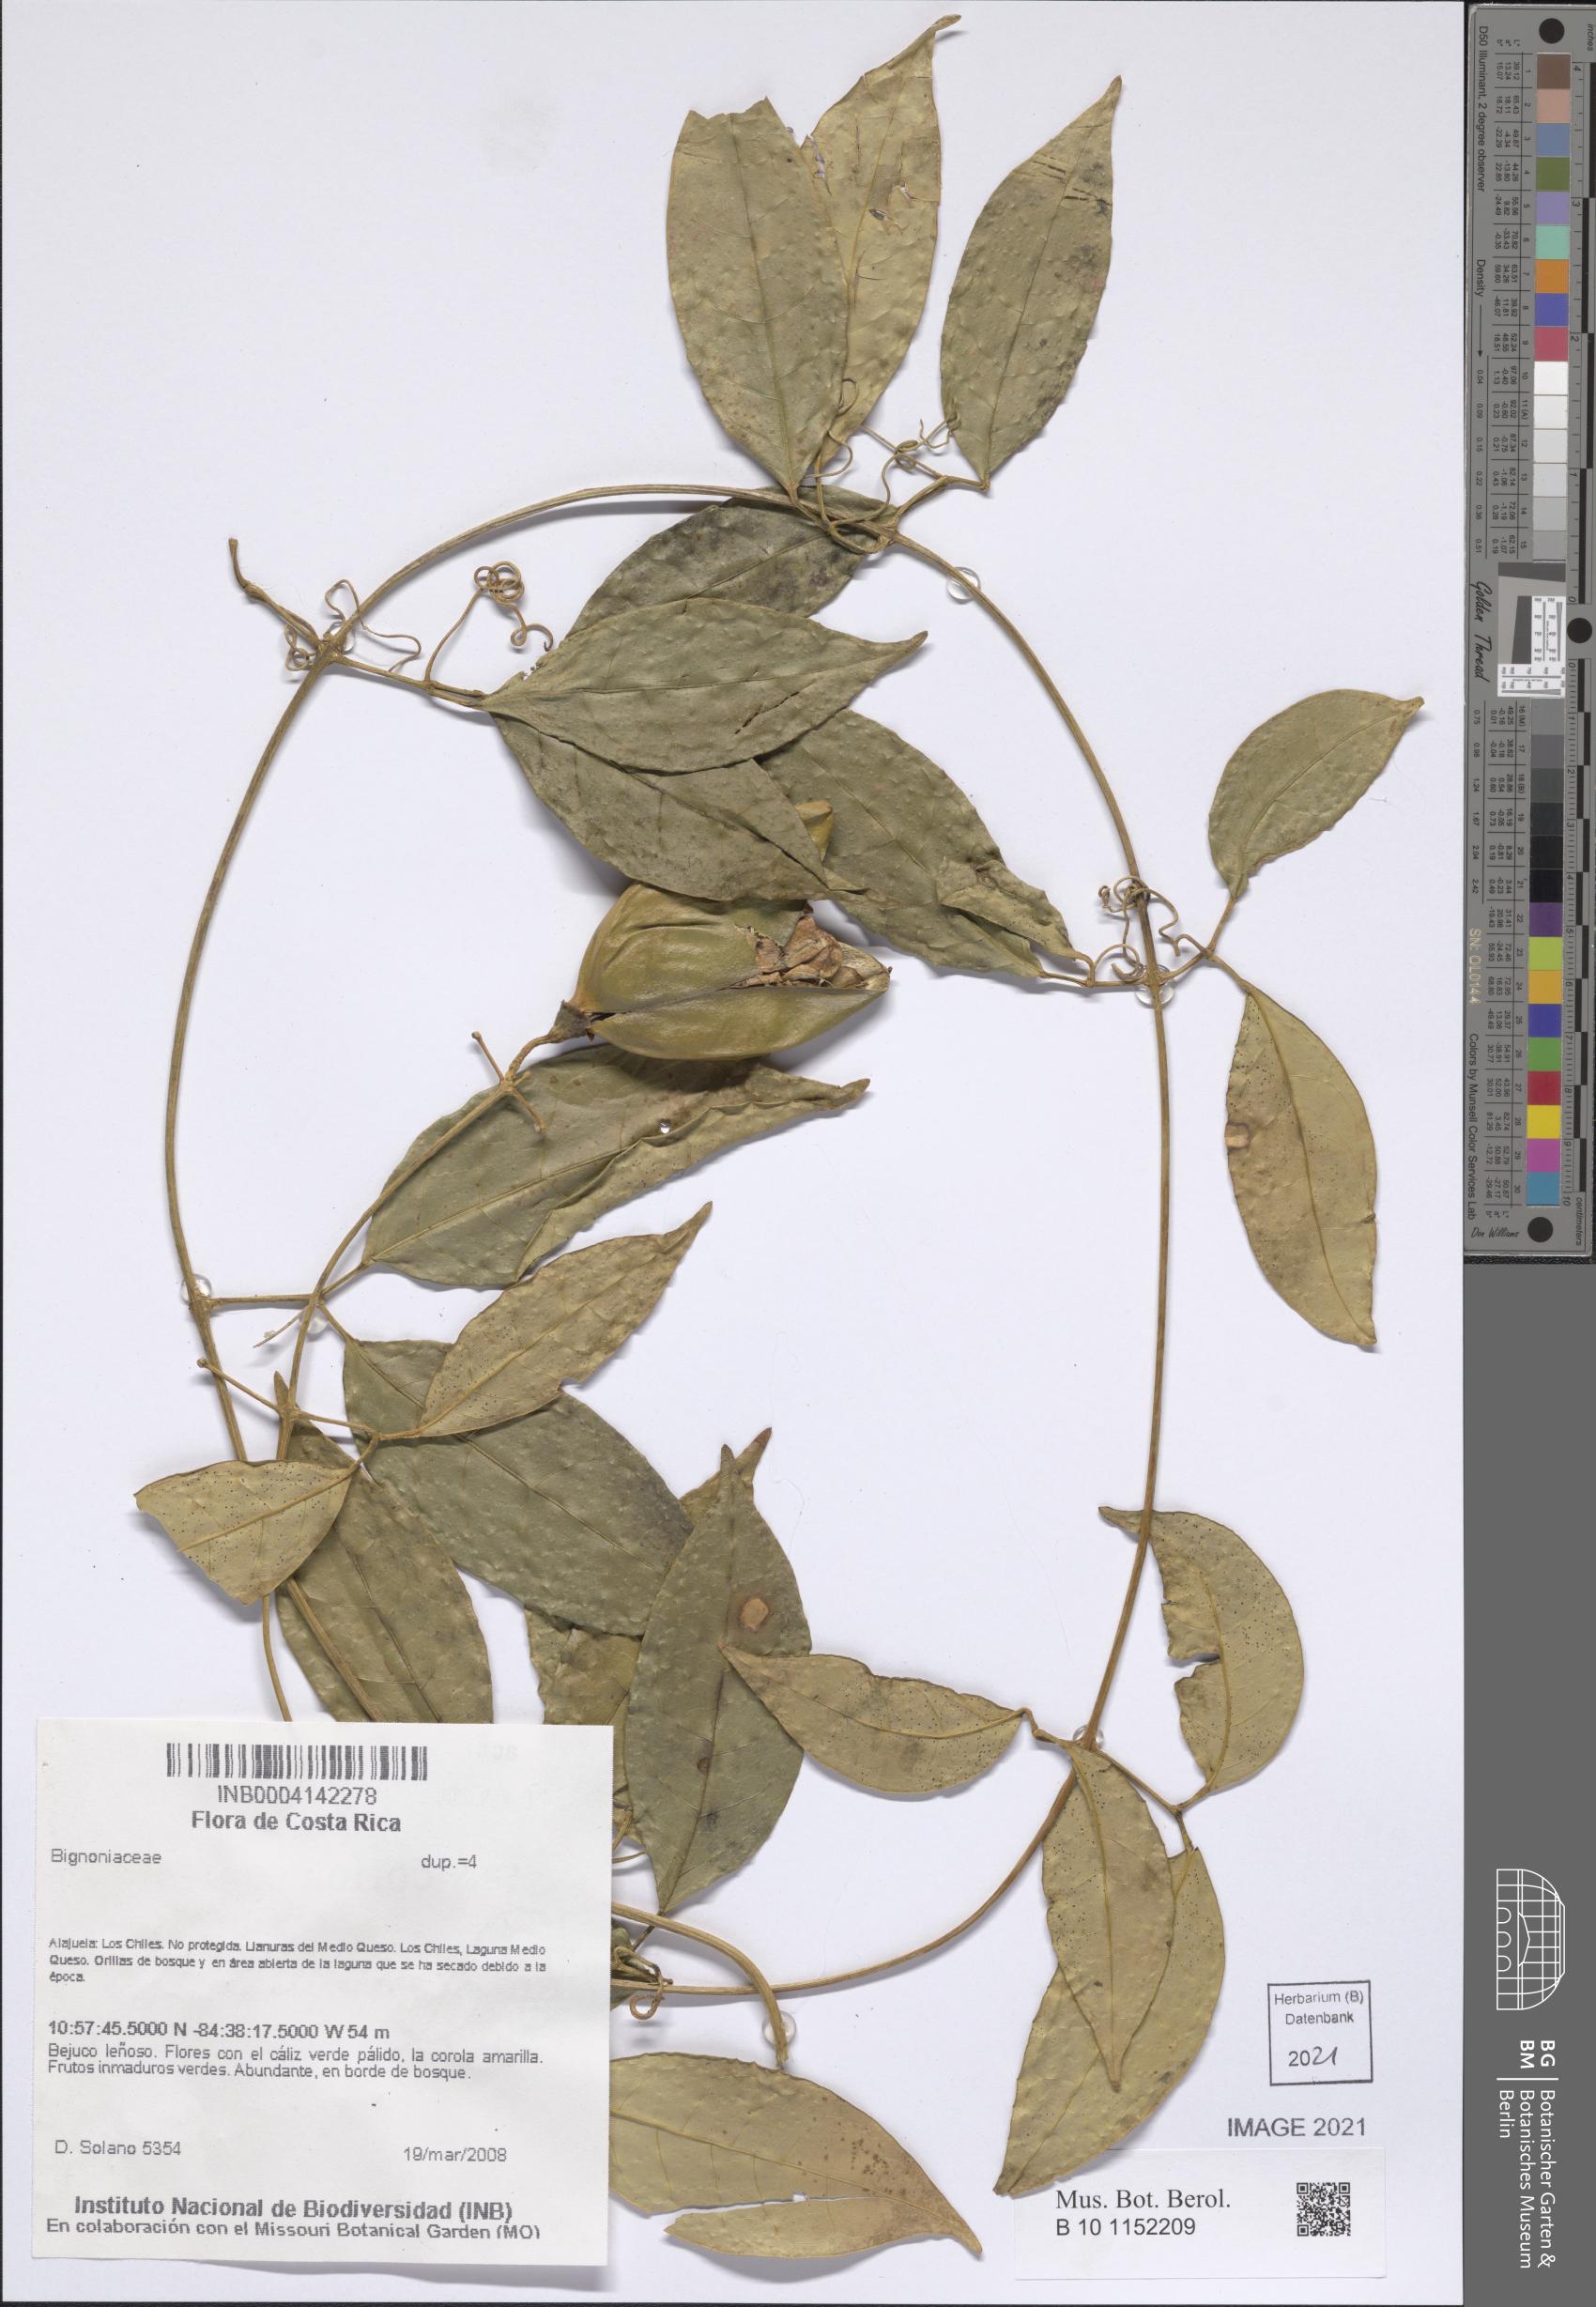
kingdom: Plantae
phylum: Tracheophyta
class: Magnoliopsida
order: Lamiales
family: Bignoniaceae
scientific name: Bignoniaceae
